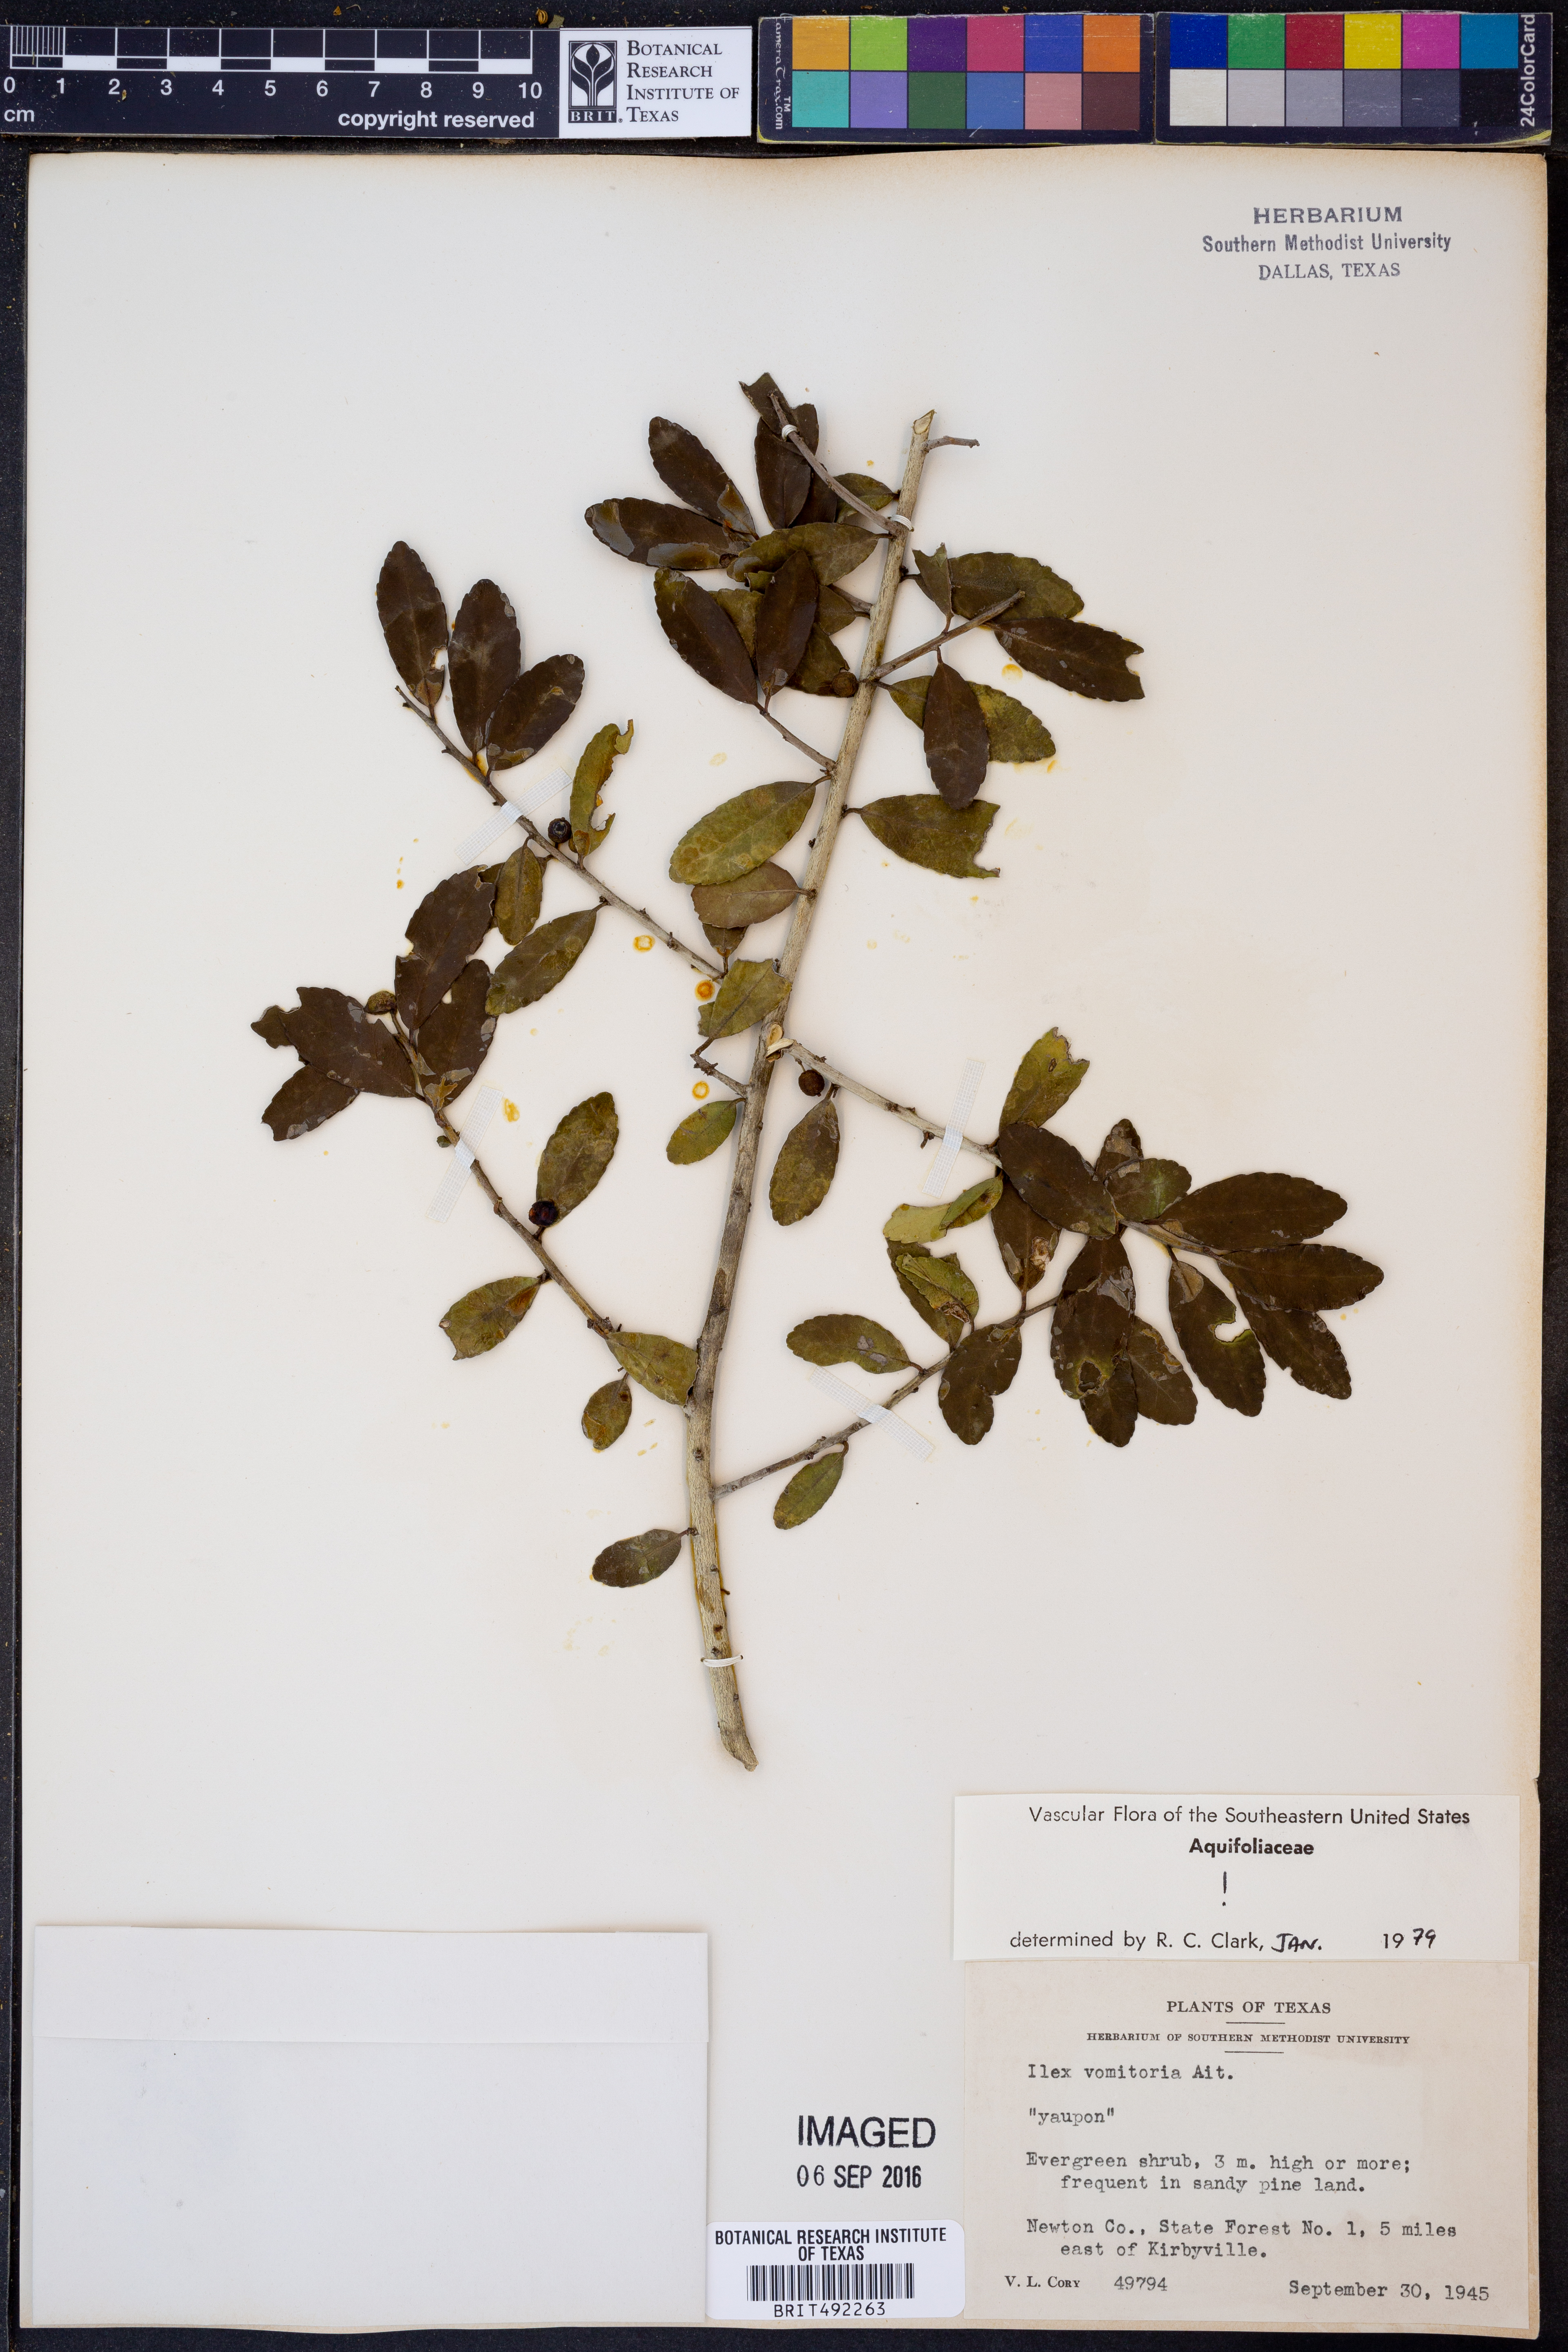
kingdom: Plantae
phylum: Tracheophyta
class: Magnoliopsida
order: Aquifoliales
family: Aquifoliaceae
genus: Ilex
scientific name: Ilex vomitoria
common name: Yaupon holly
